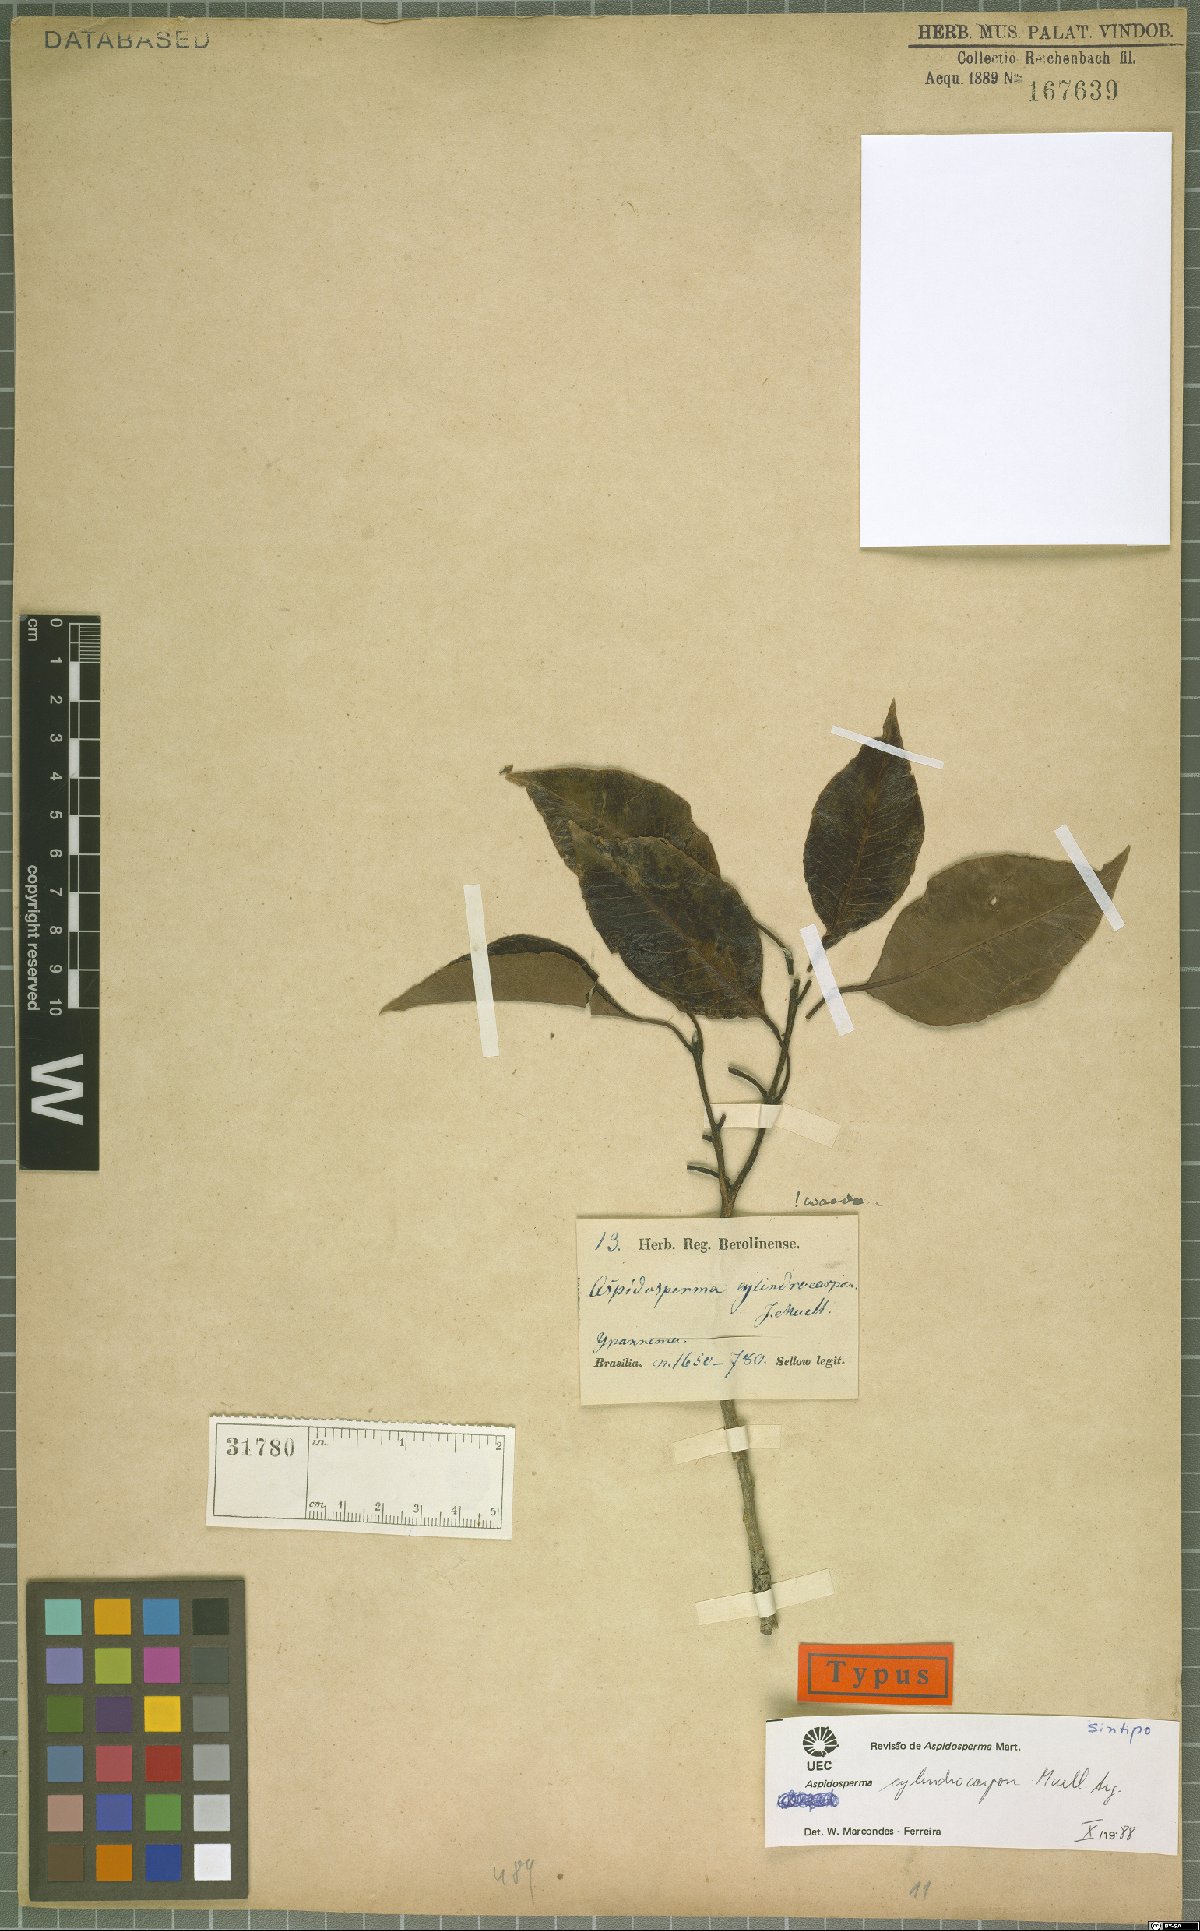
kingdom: Plantae
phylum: Tracheophyta
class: Magnoliopsida
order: Gentianales
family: Apocynaceae
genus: Aspidosperma
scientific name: Aspidosperma cylindrocarpon
